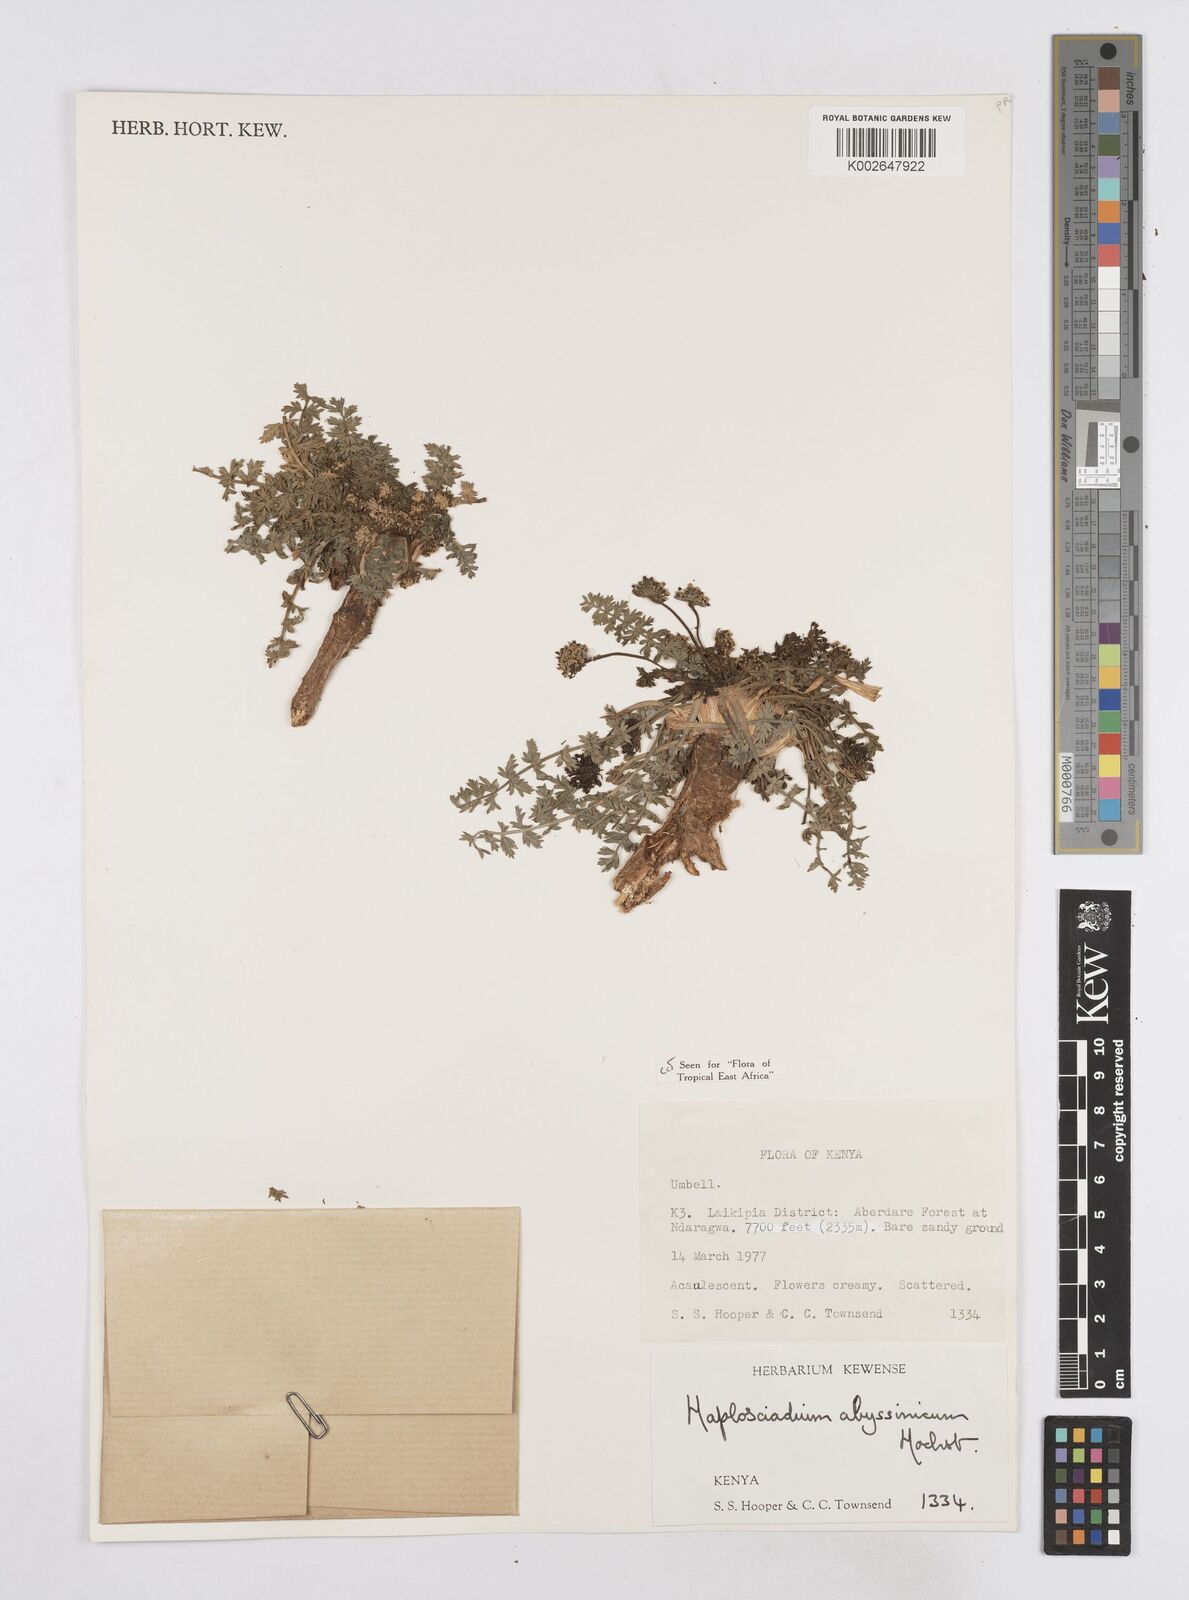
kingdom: Plantae
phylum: Tracheophyta
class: Magnoliopsida
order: Apiales
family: Apiaceae
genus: Haplosciadium
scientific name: Haplosciadium abyssinicum
